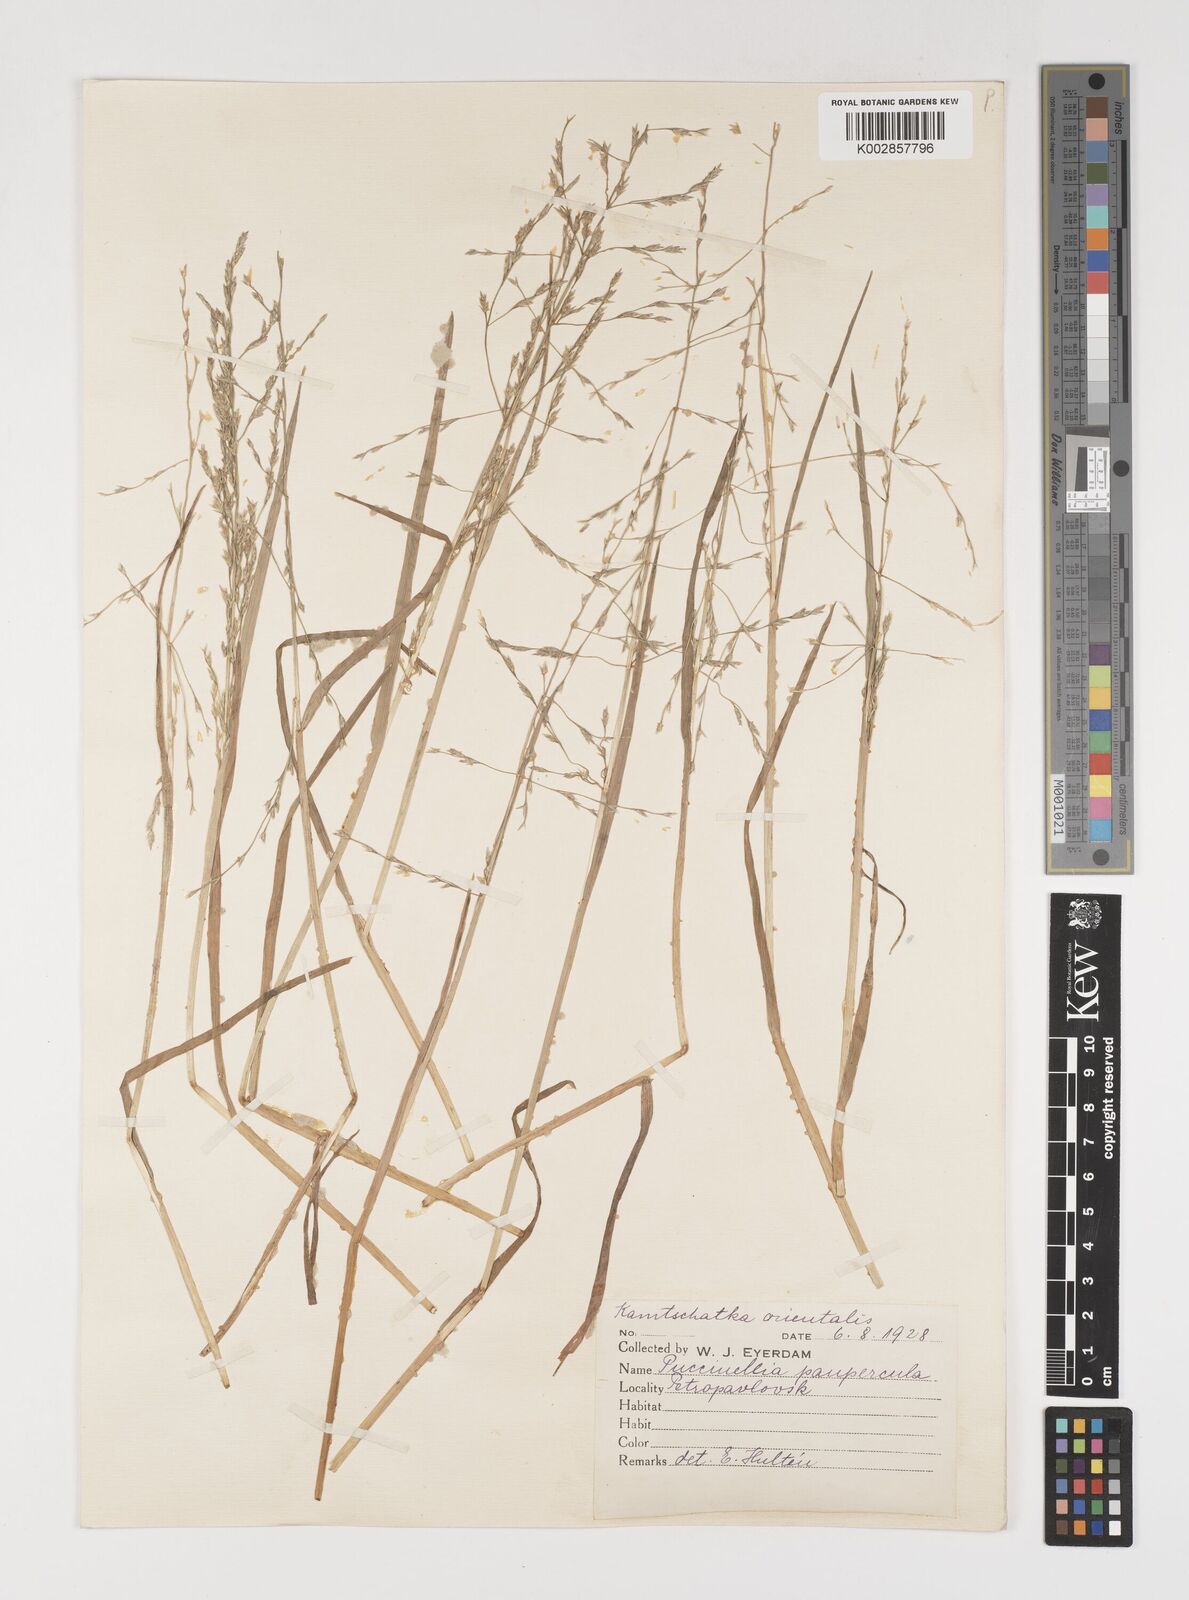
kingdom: Plantae
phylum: Tracheophyta
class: Liliopsida
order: Poales
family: Poaceae
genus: Puccinellia
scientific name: Puccinellia pumila
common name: Dwarf alkaligrass
